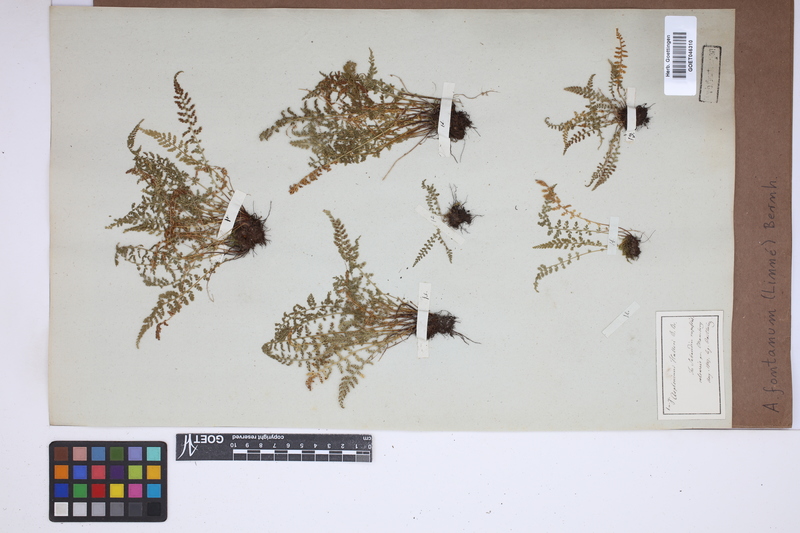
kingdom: Plantae
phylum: Tracheophyta
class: Polypodiopsida
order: Polypodiales
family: Aspleniaceae
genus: Asplenium
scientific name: Asplenium fontanum
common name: Fountain spleenwort
